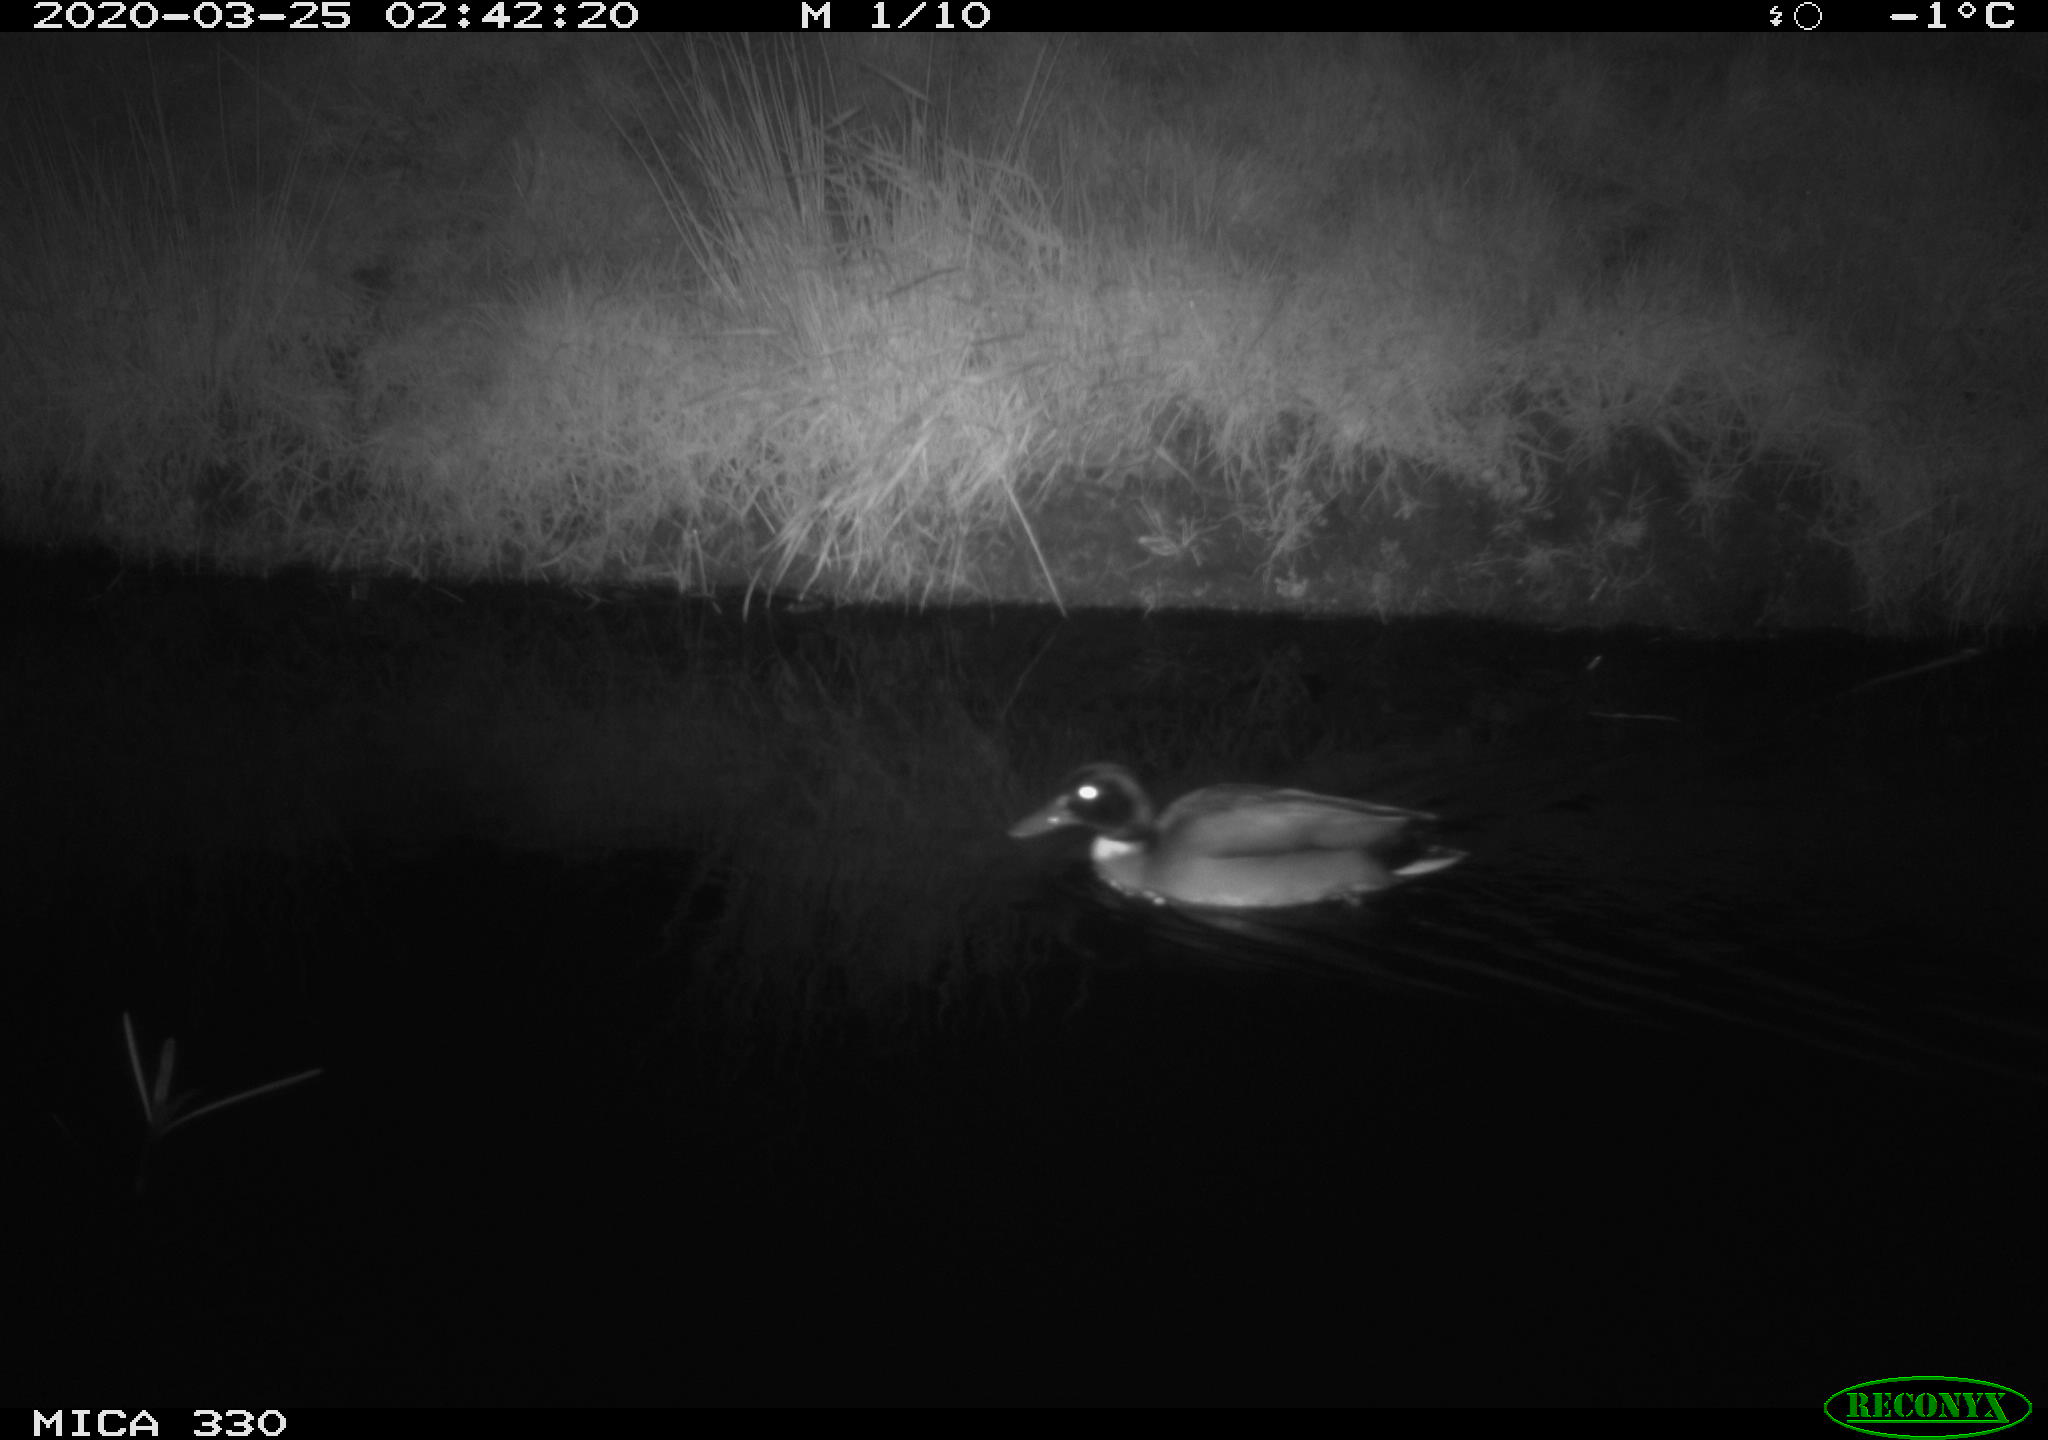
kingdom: Animalia
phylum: Chordata
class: Aves
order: Anseriformes
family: Anatidae
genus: Anas
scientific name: Anas platyrhynchos
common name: Mallard
